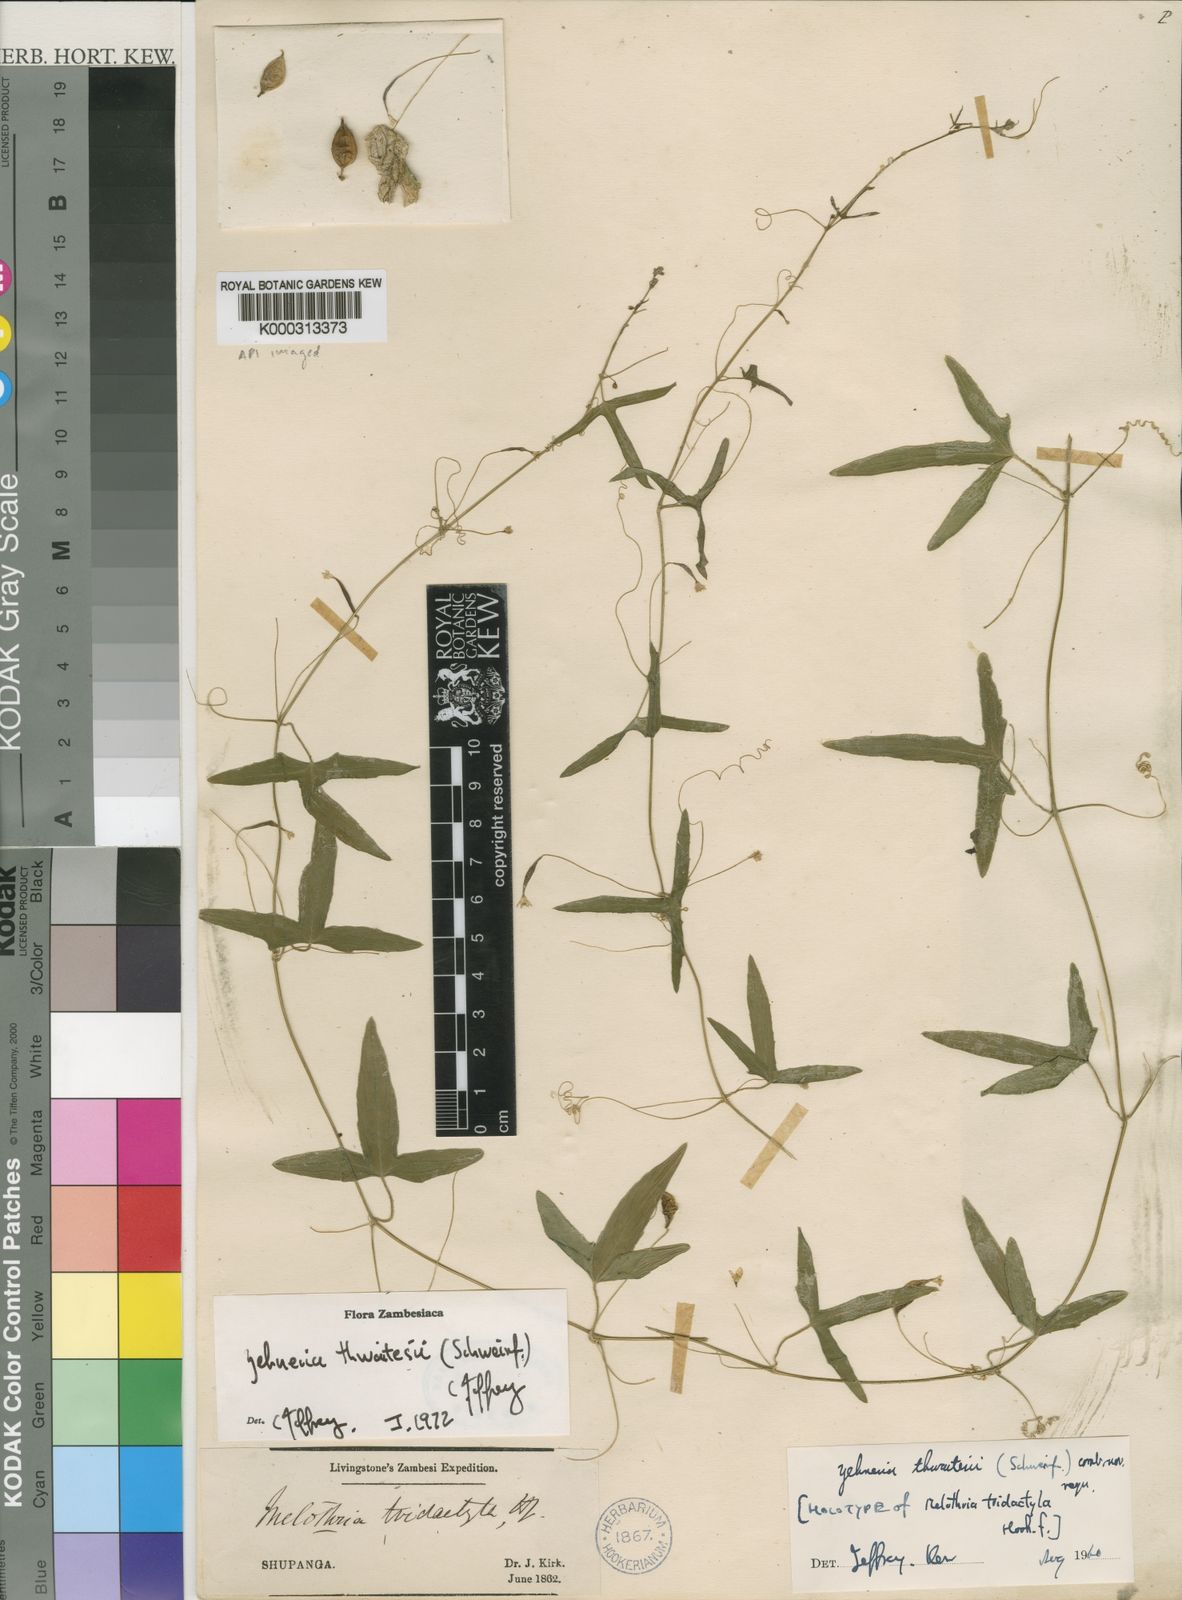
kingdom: Plantae
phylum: Tracheophyta
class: Magnoliopsida
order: Cucurbitales
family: Cucurbitaceae
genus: Zehneria
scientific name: Zehneria thwaitesii
